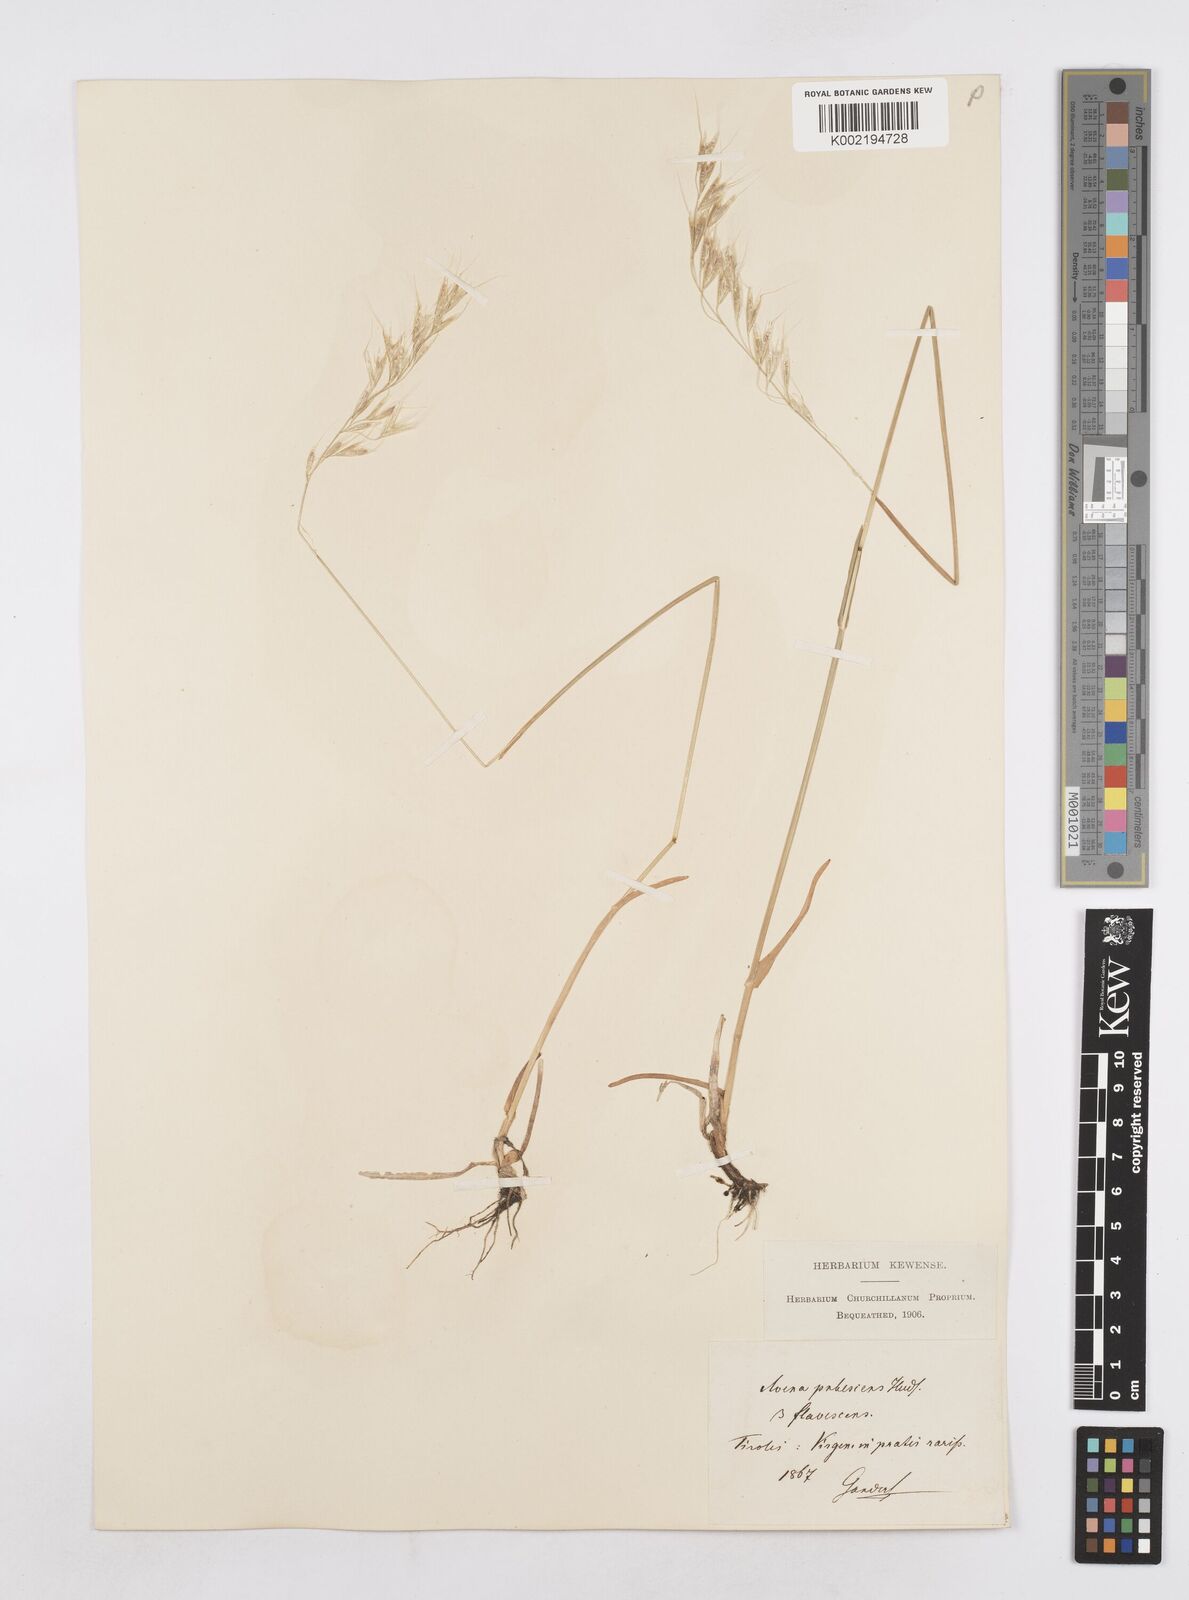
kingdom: Plantae
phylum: Tracheophyta
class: Liliopsida
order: Poales
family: Poaceae
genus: Avenula
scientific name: Avenula pubescens
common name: Downy alpine oatgrass
